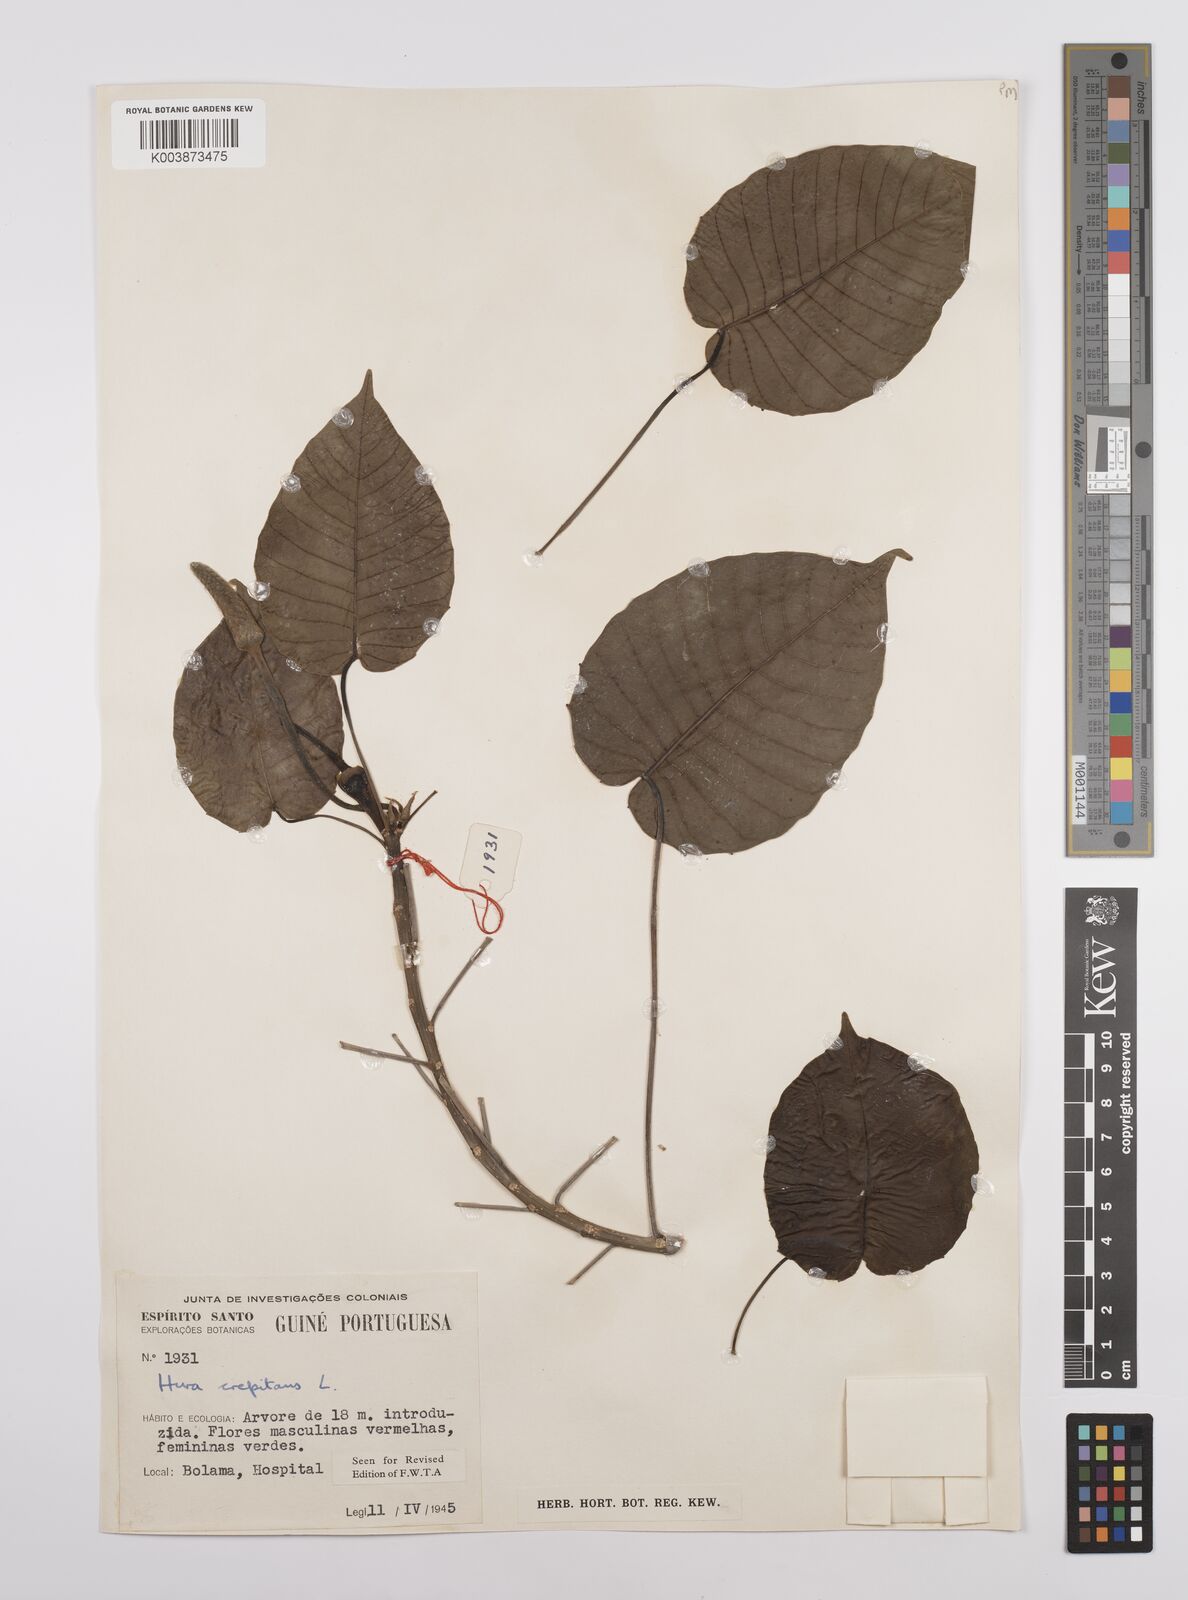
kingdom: Plantae
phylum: Tracheophyta
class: Magnoliopsida
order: Malpighiales
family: Euphorbiaceae
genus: Hura
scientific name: Hura crepitans
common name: Sandboxtree
